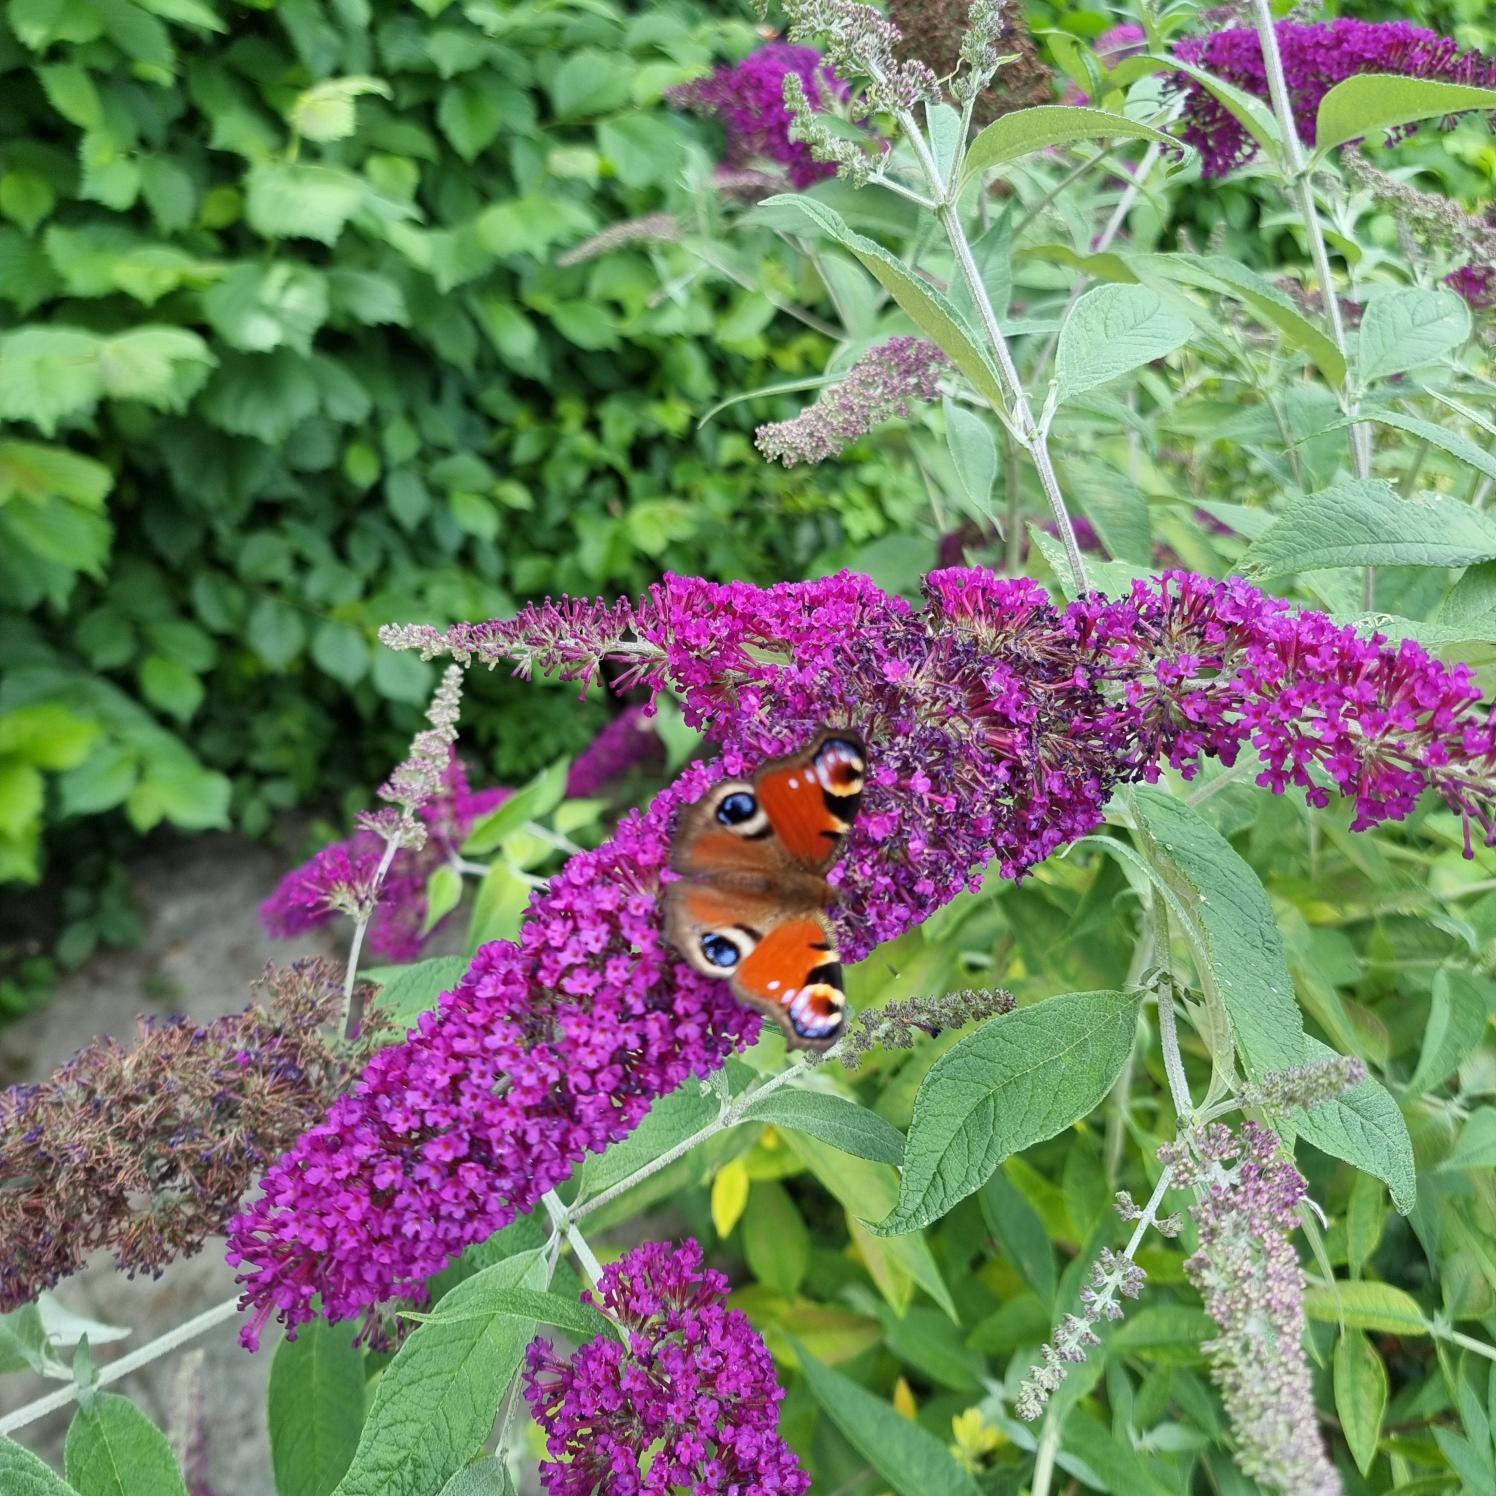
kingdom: Animalia
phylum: Arthropoda
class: Insecta
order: Lepidoptera
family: Nymphalidae
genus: Aglais
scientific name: Aglais io
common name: Dagpåfugleøje
